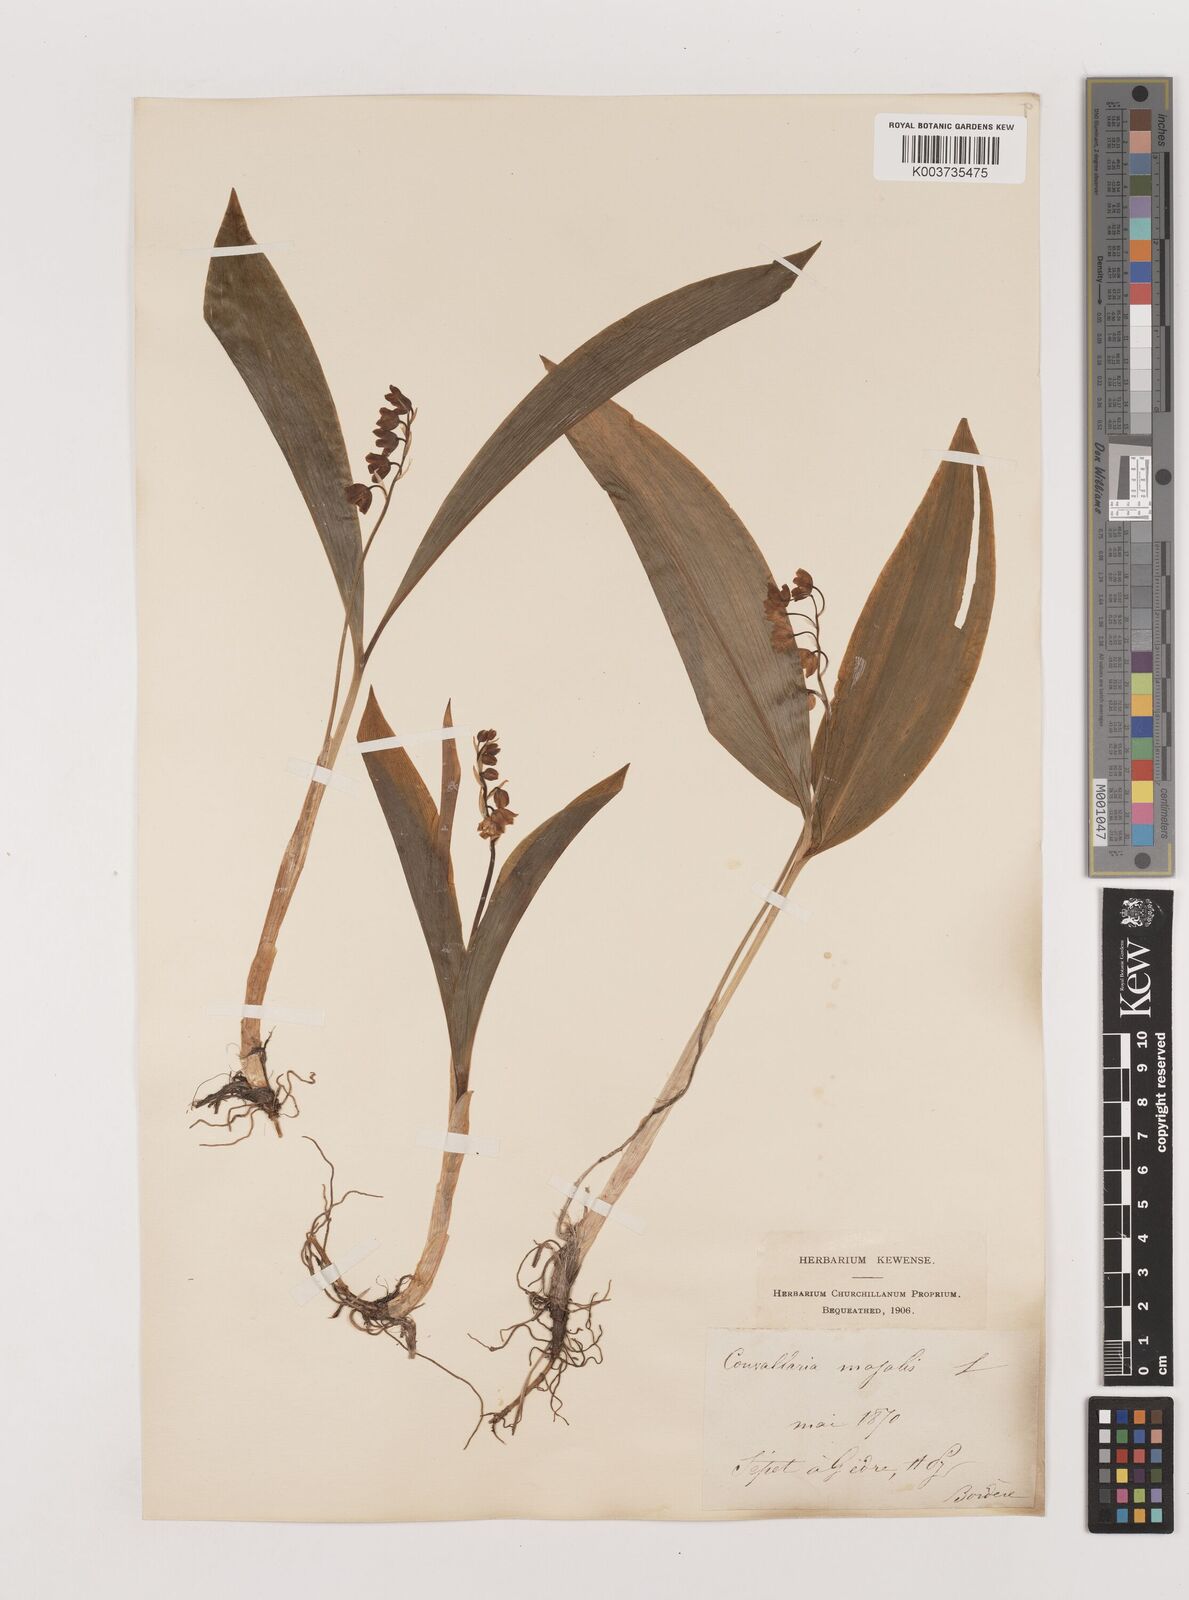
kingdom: Plantae
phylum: Tracheophyta
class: Liliopsida
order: Asparagales
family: Asparagaceae
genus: Convallaria
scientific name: Convallaria majalis
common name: Lily-of-the-valley
